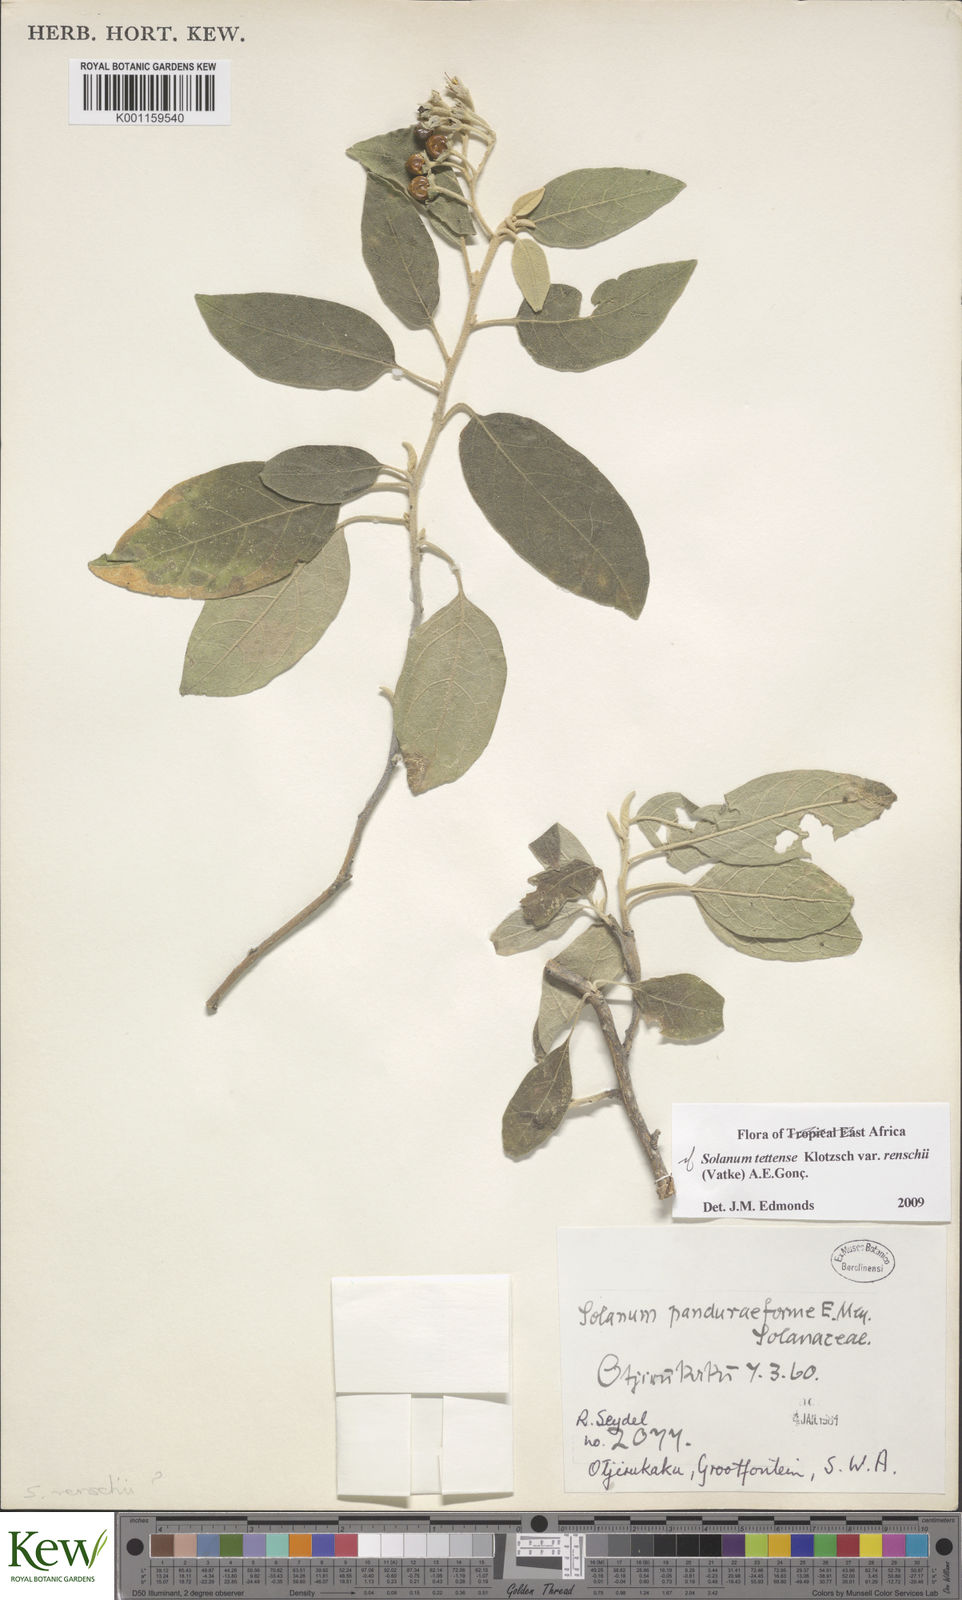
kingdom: Plantae
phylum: Tracheophyta
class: Magnoliopsida
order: Solanales
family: Solanaceae
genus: Solanum
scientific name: Solanum tettense
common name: Mozambique bitter apple
